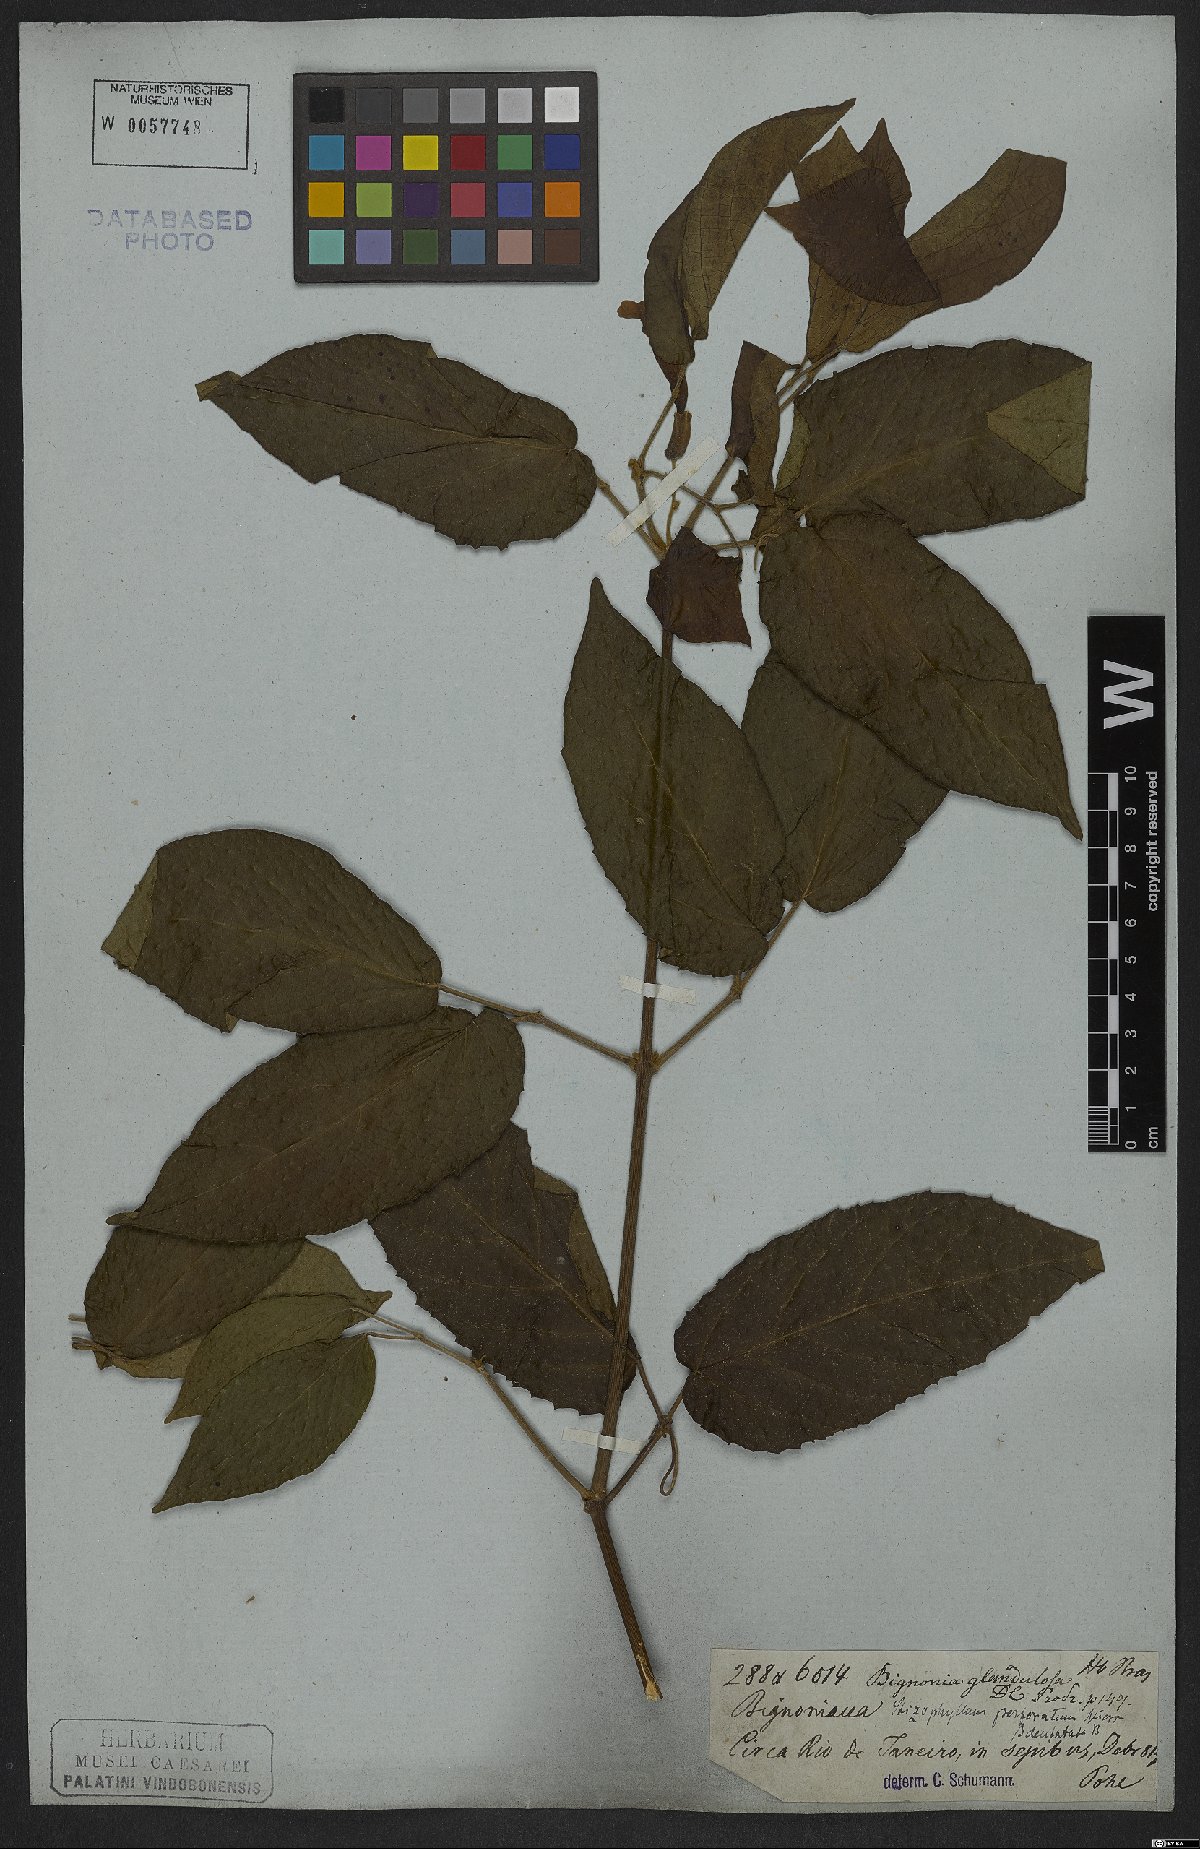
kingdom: Plantae
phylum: Tracheophyta
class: Magnoliopsida
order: Lamiales
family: Bignoniaceae
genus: Stizophyllum
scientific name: Stizophyllum perforatum
